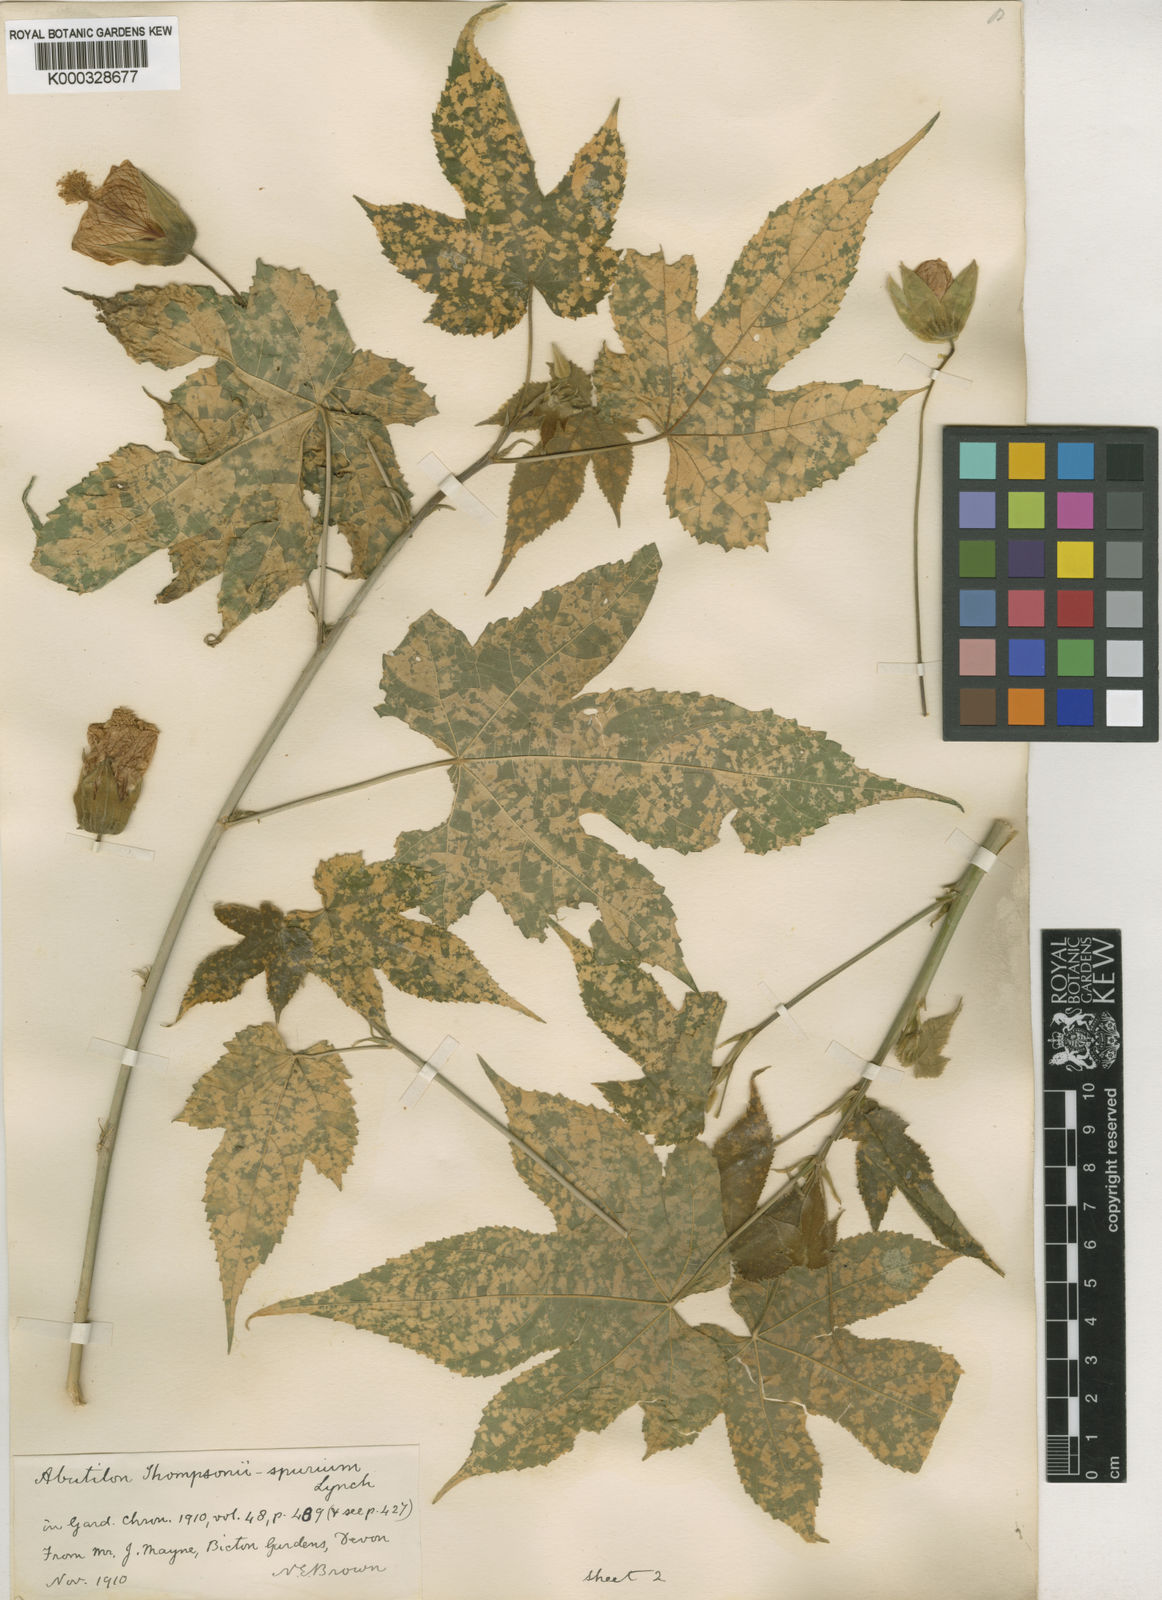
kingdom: Plantae
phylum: Tracheophyta
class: Magnoliopsida
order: Malvales
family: Malvaceae
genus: Abutilon
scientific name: Abutilon
